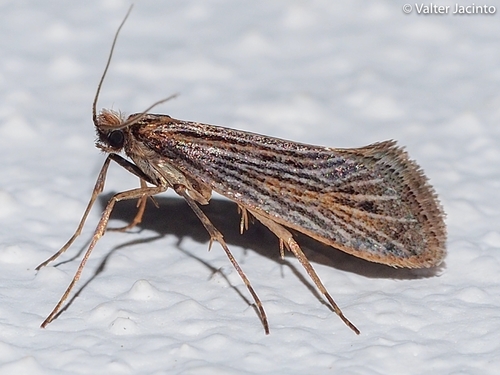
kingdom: Animalia
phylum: Arthropoda
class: Insecta
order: Lepidoptera
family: Eriocottidae
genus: Deuterotinea
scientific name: Deuterotinea paradoxella
